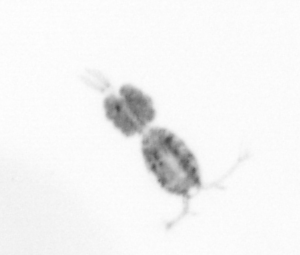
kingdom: Animalia
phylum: Arthropoda
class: Copepoda
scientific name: Copepoda
